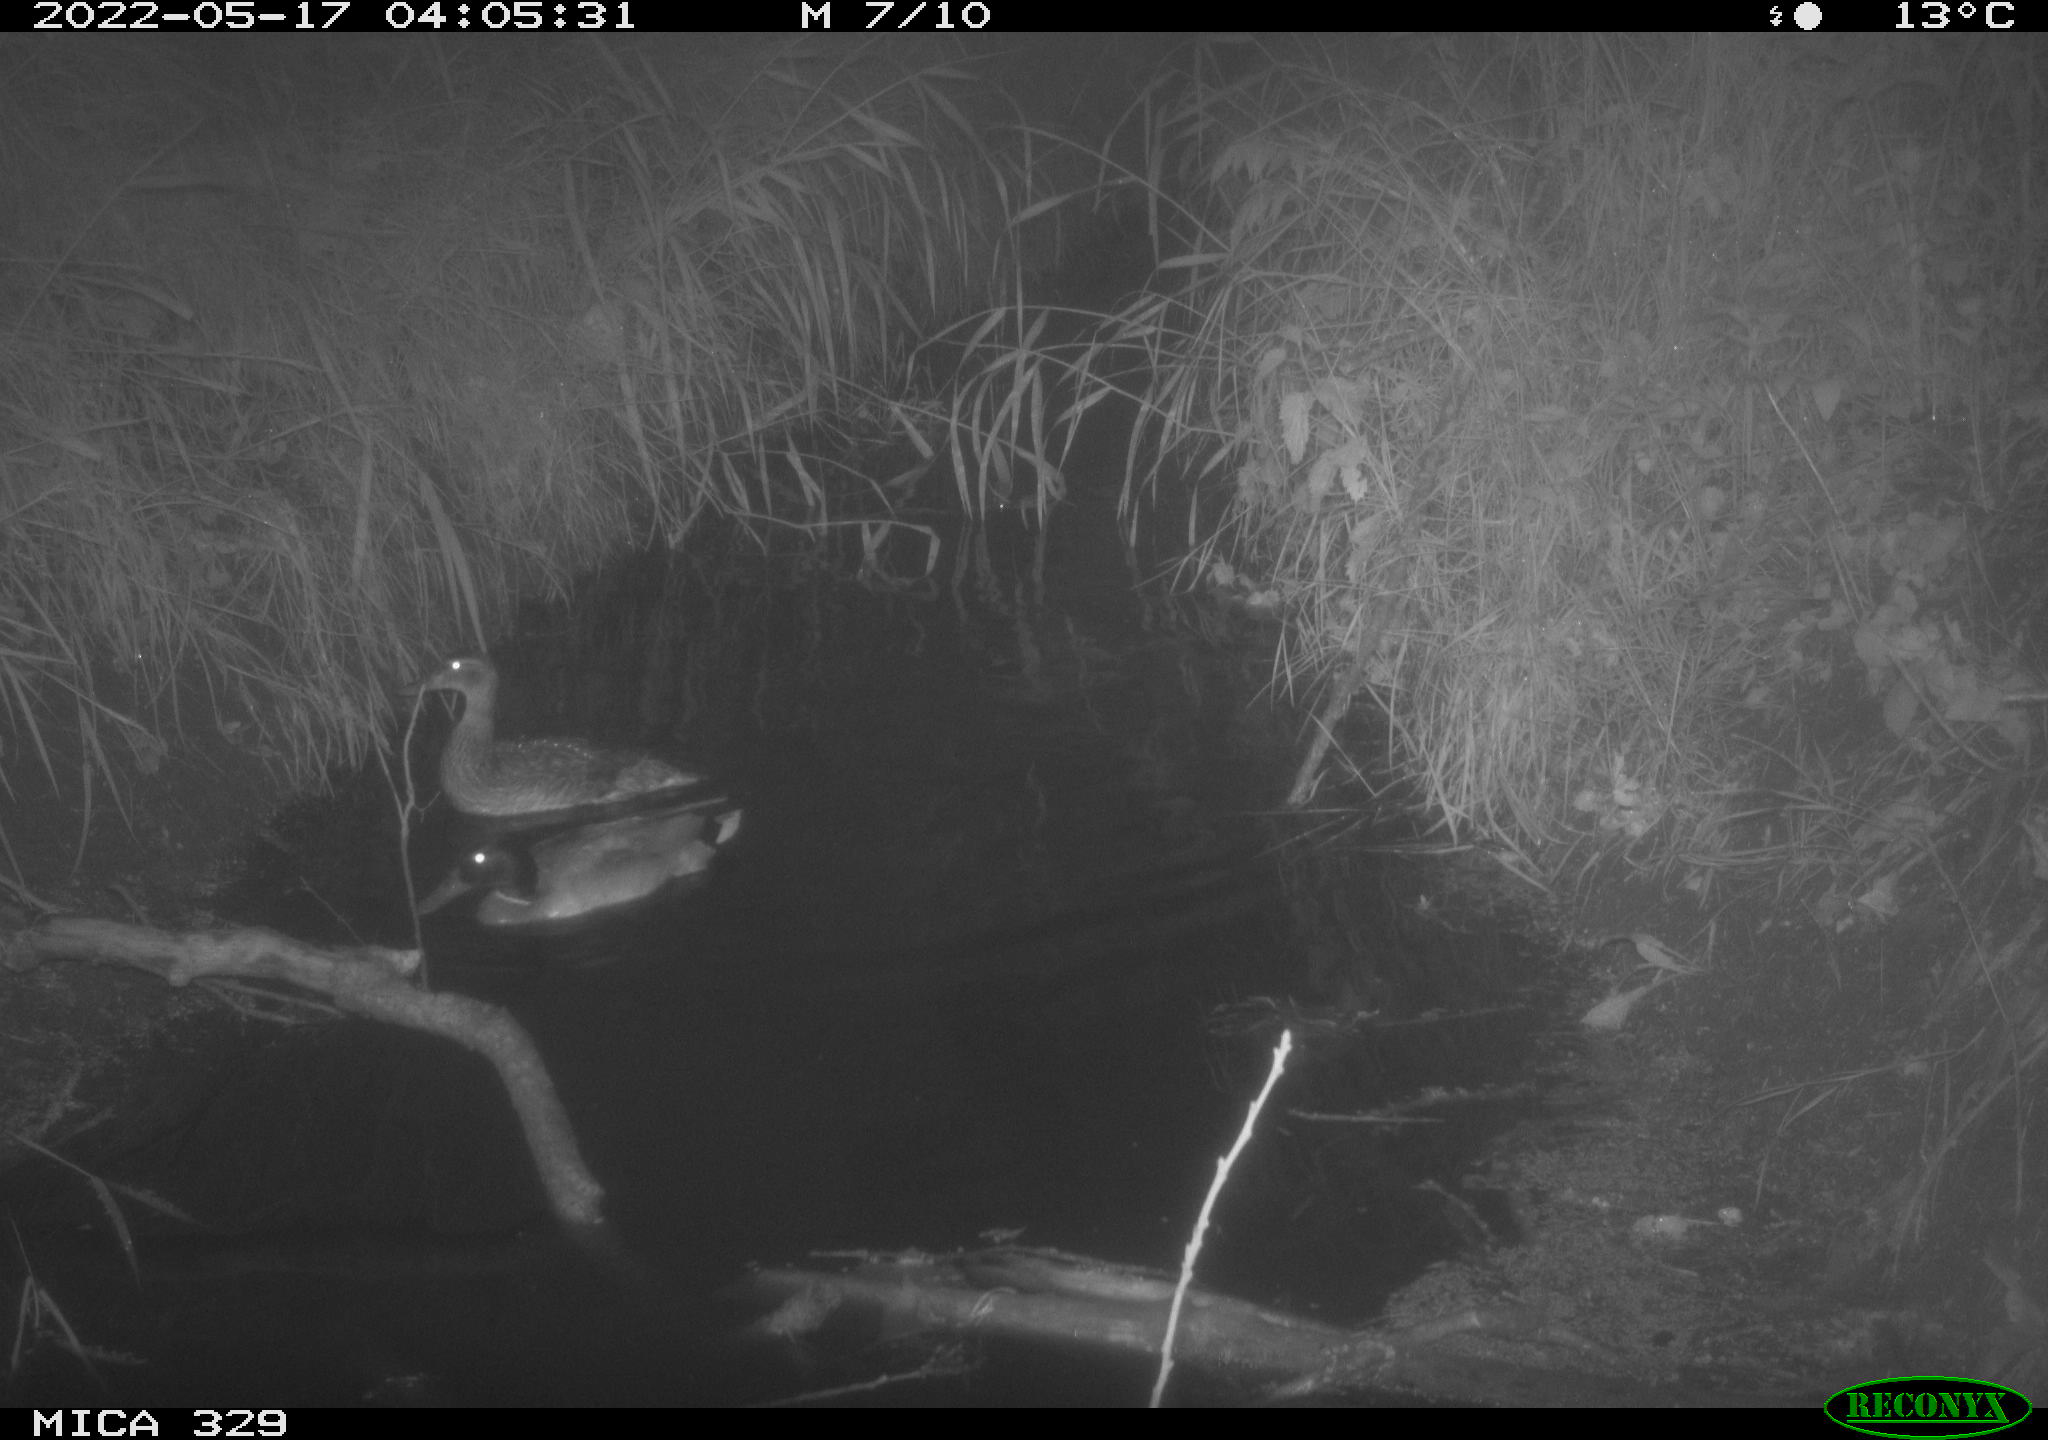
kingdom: Animalia
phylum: Chordata
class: Aves
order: Anseriformes
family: Anatidae
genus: Anas
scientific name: Anas platyrhynchos
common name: Mallard
